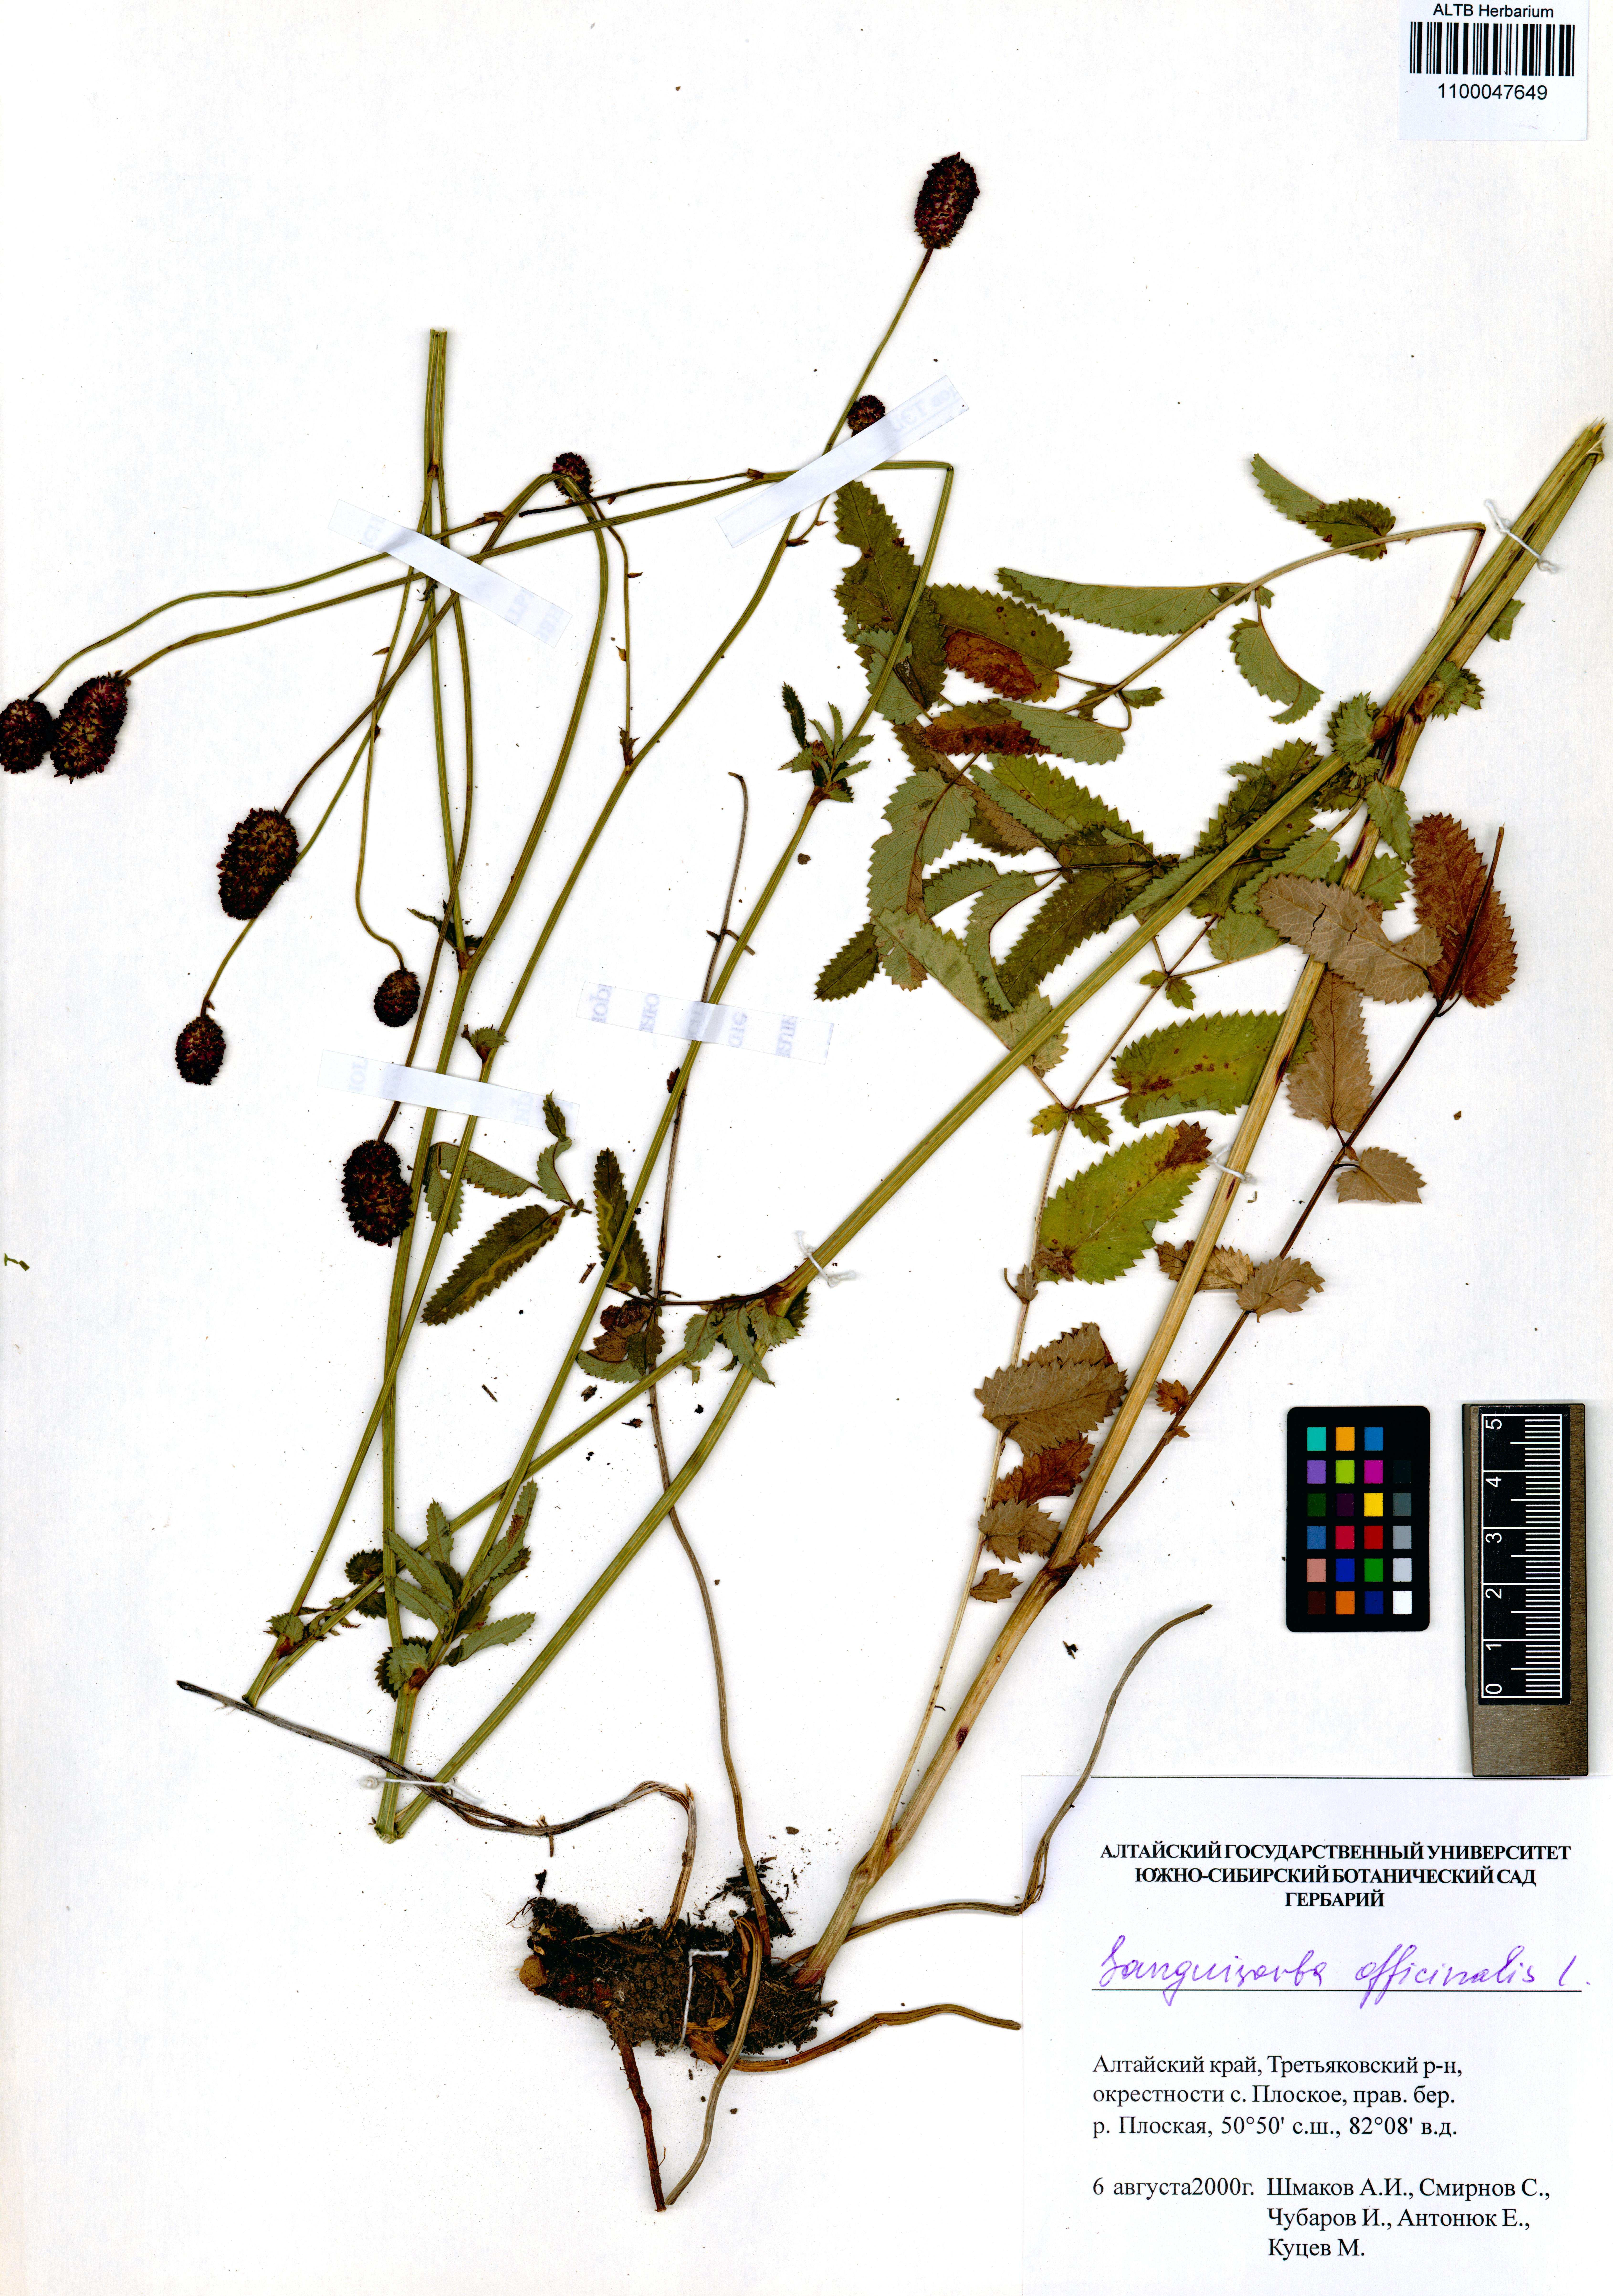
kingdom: Plantae
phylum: Tracheophyta
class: Magnoliopsida
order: Rosales
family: Rosaceae
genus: Sanguisorba
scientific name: Sanguisorba officinalis
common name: Great burnet
